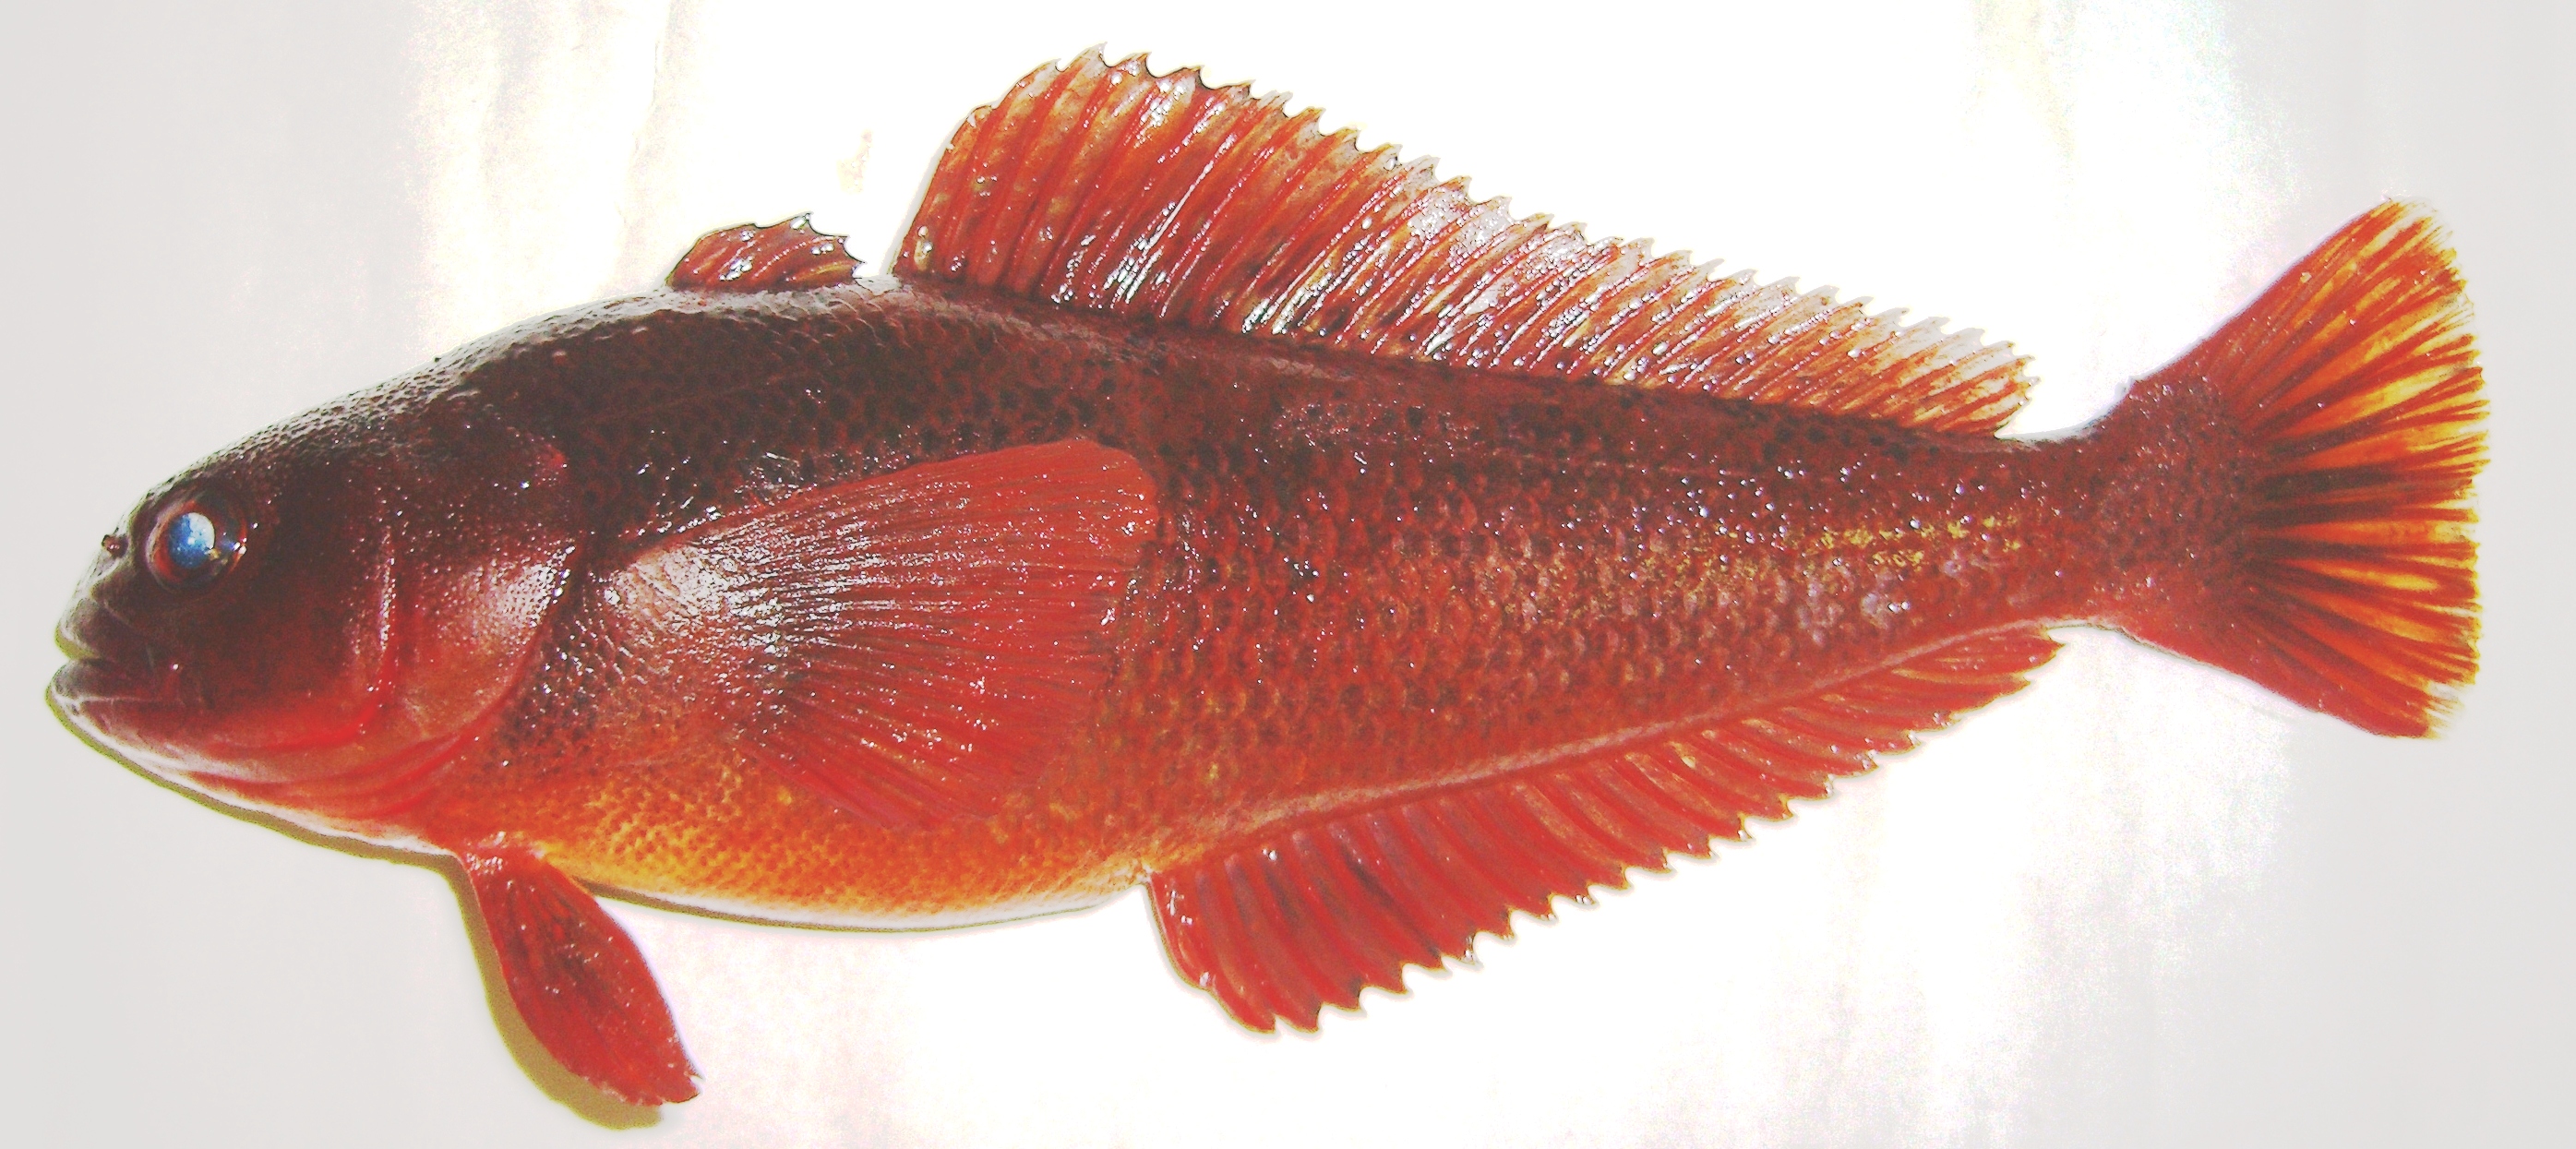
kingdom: Animalia
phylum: Chordata
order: Perciformes
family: Nototheniidae
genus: Paranotothenia
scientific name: Paranotothenia magellanica
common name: Magellanic rockcod
